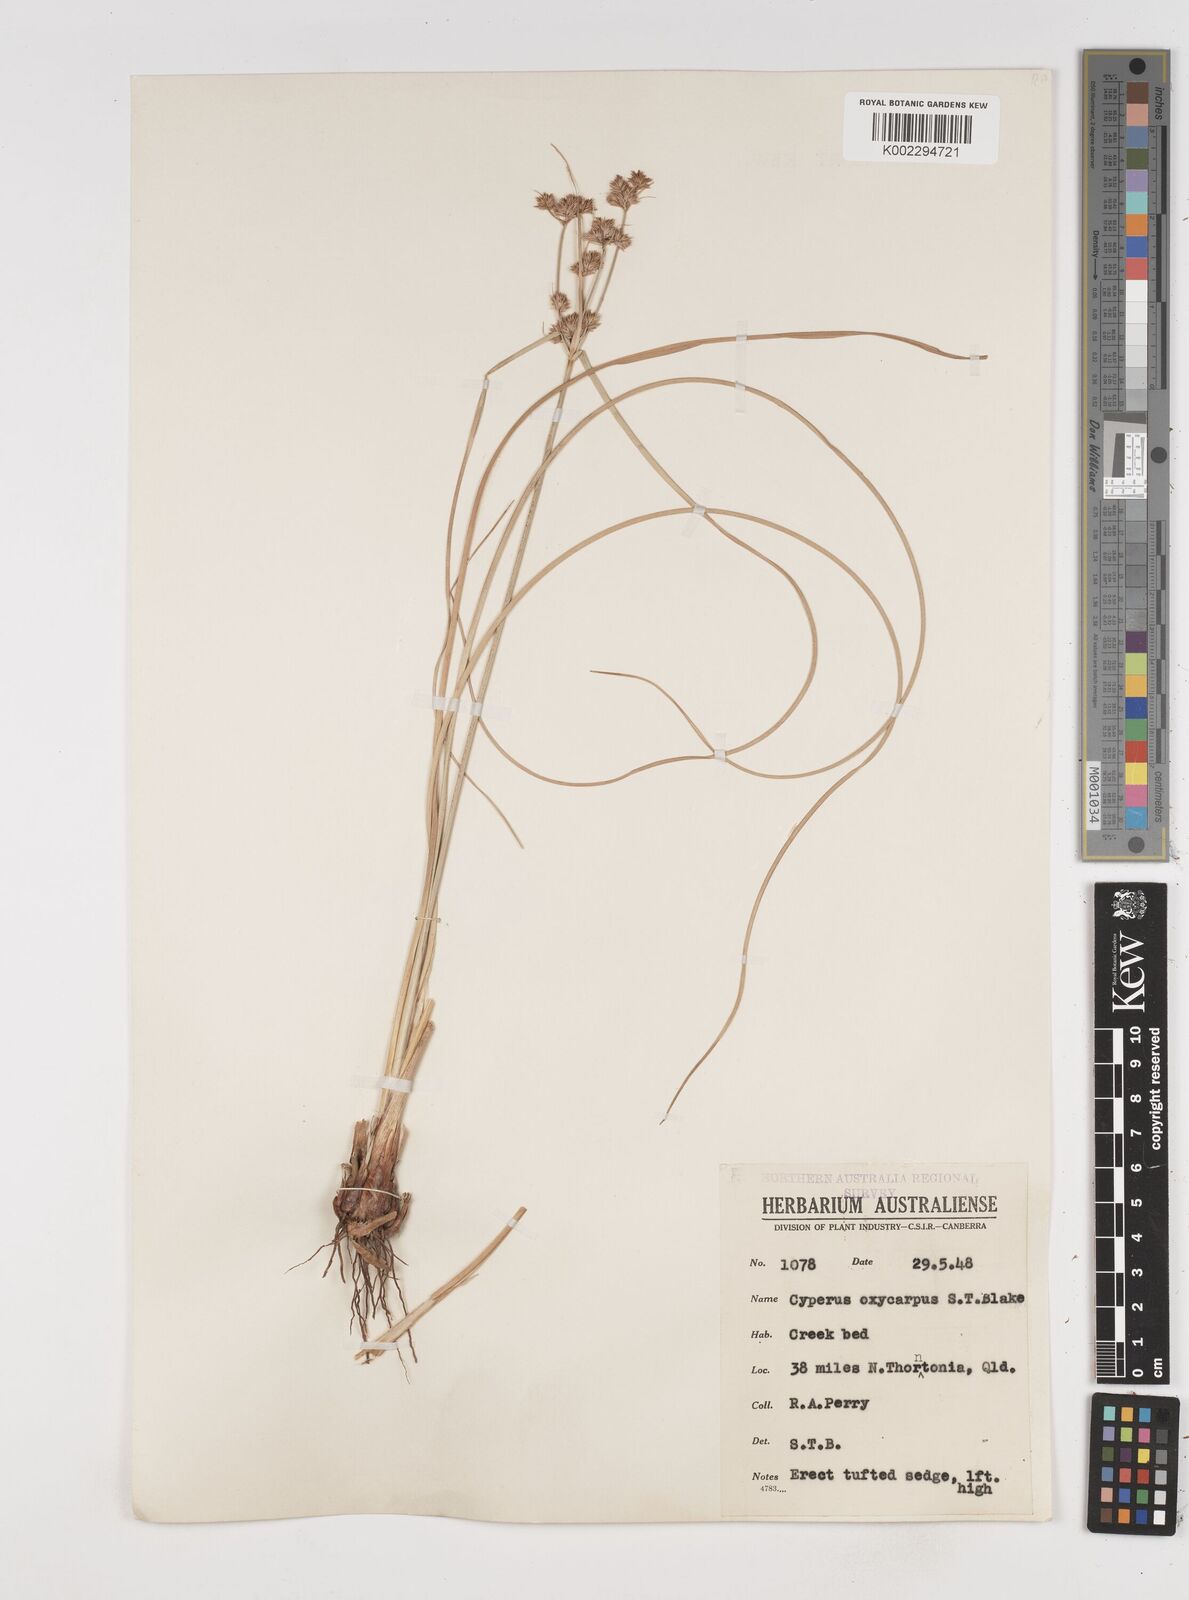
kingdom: Plantae
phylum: Tracheophyta
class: Liliopsida
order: Poales
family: Cyperaceae
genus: Cyperus
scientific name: Cyperus oxycarpus
